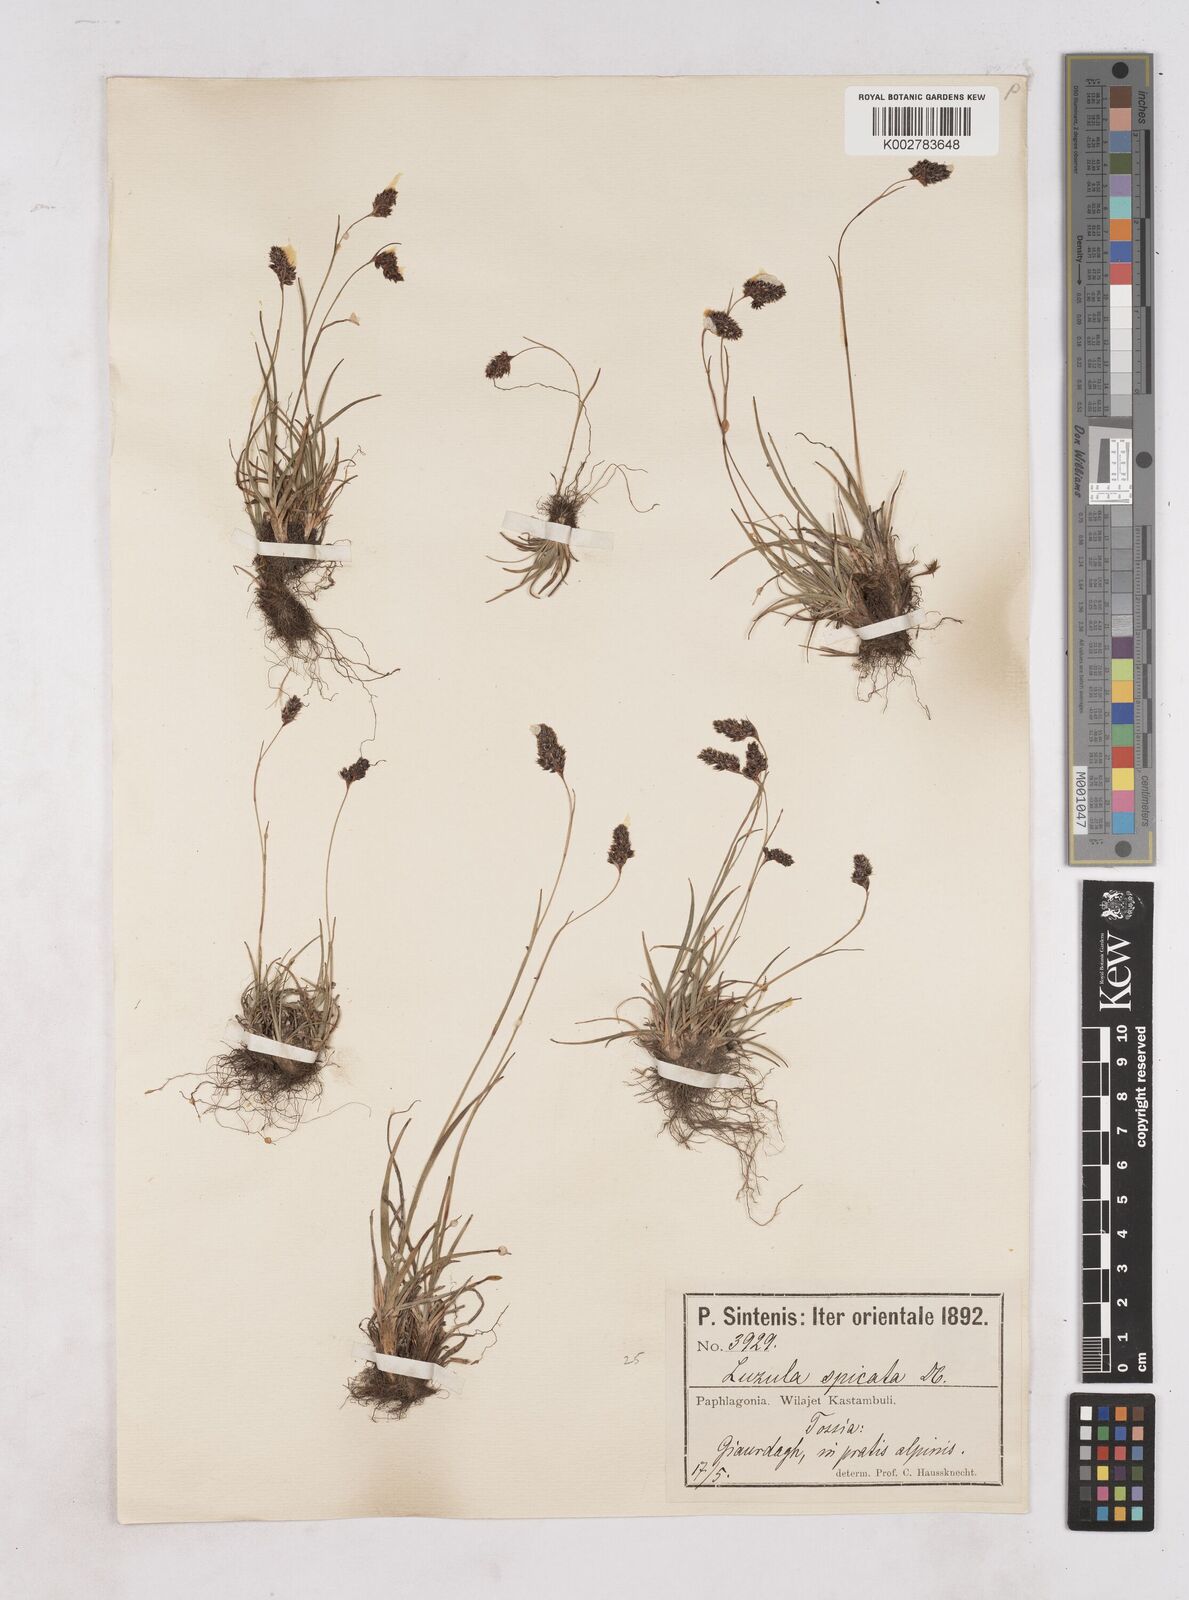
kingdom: Plantae
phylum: Tracheophyta
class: Liliopsida
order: Poales
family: Juncaceae
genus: Luzula
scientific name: Luzula spicata
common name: Spiked wood-rush
